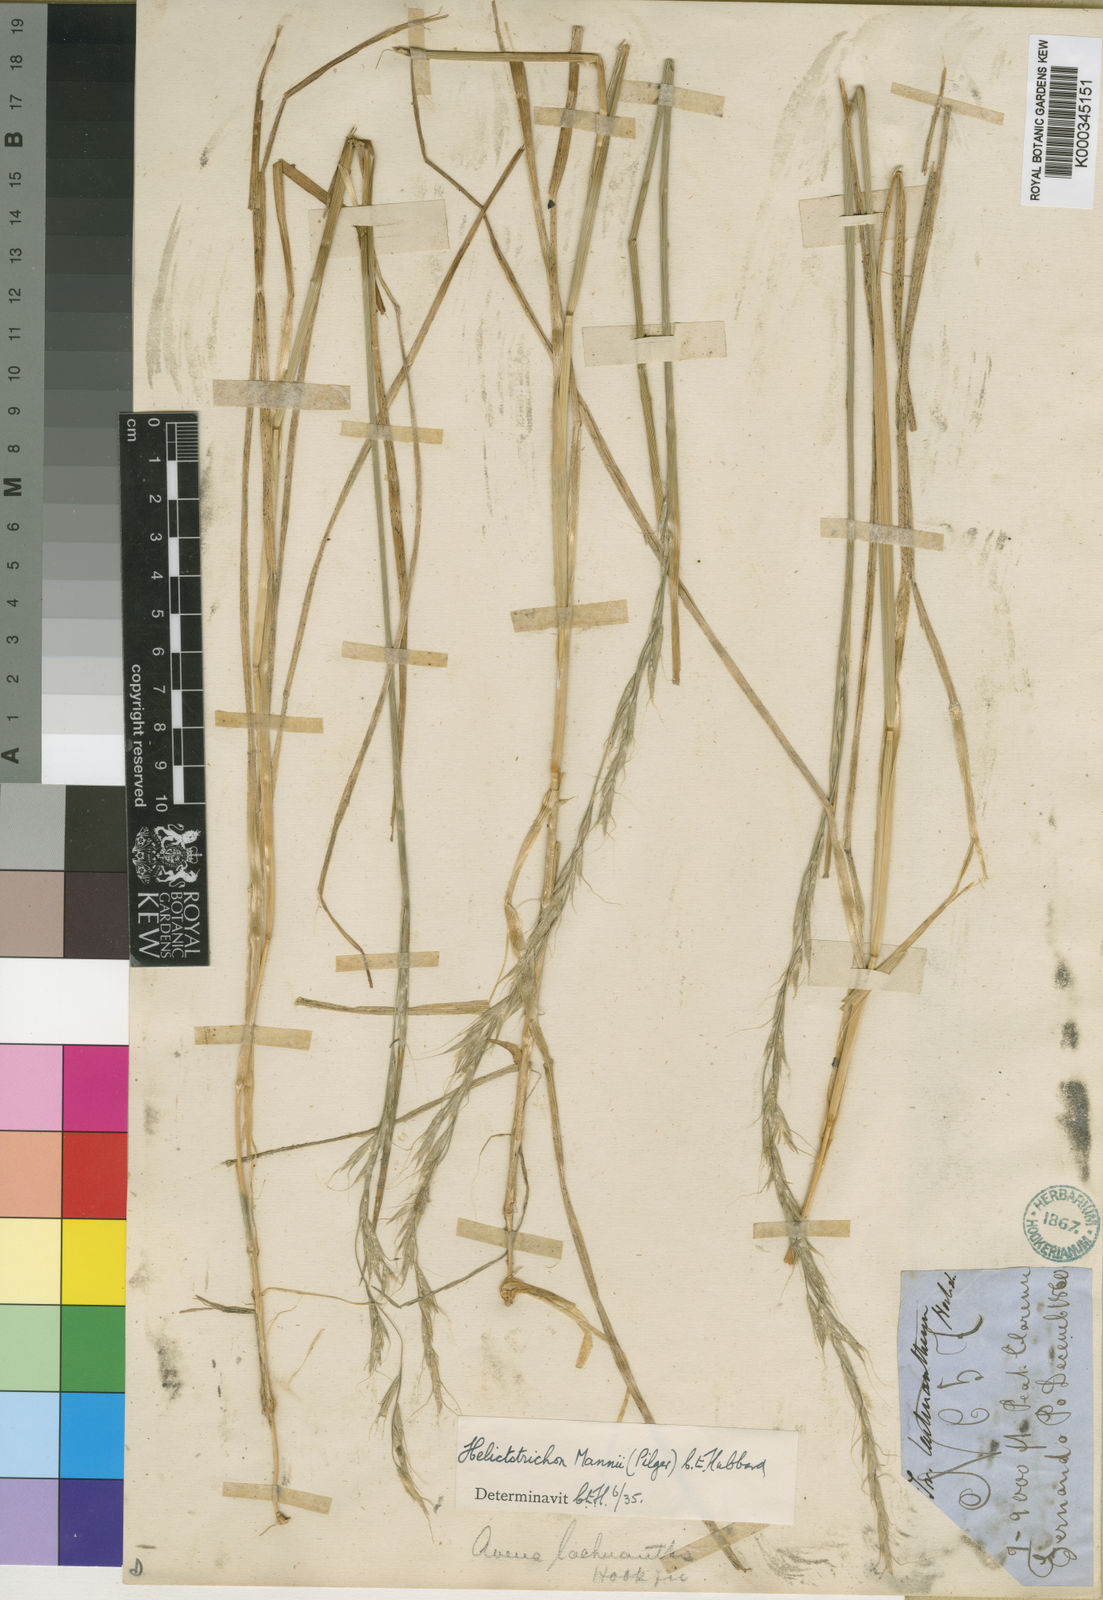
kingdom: Plantae
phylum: Tracheophyta
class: Liliopsida
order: Poales
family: Poaceae
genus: Trisetopsis
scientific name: Trisetopsis mannii
